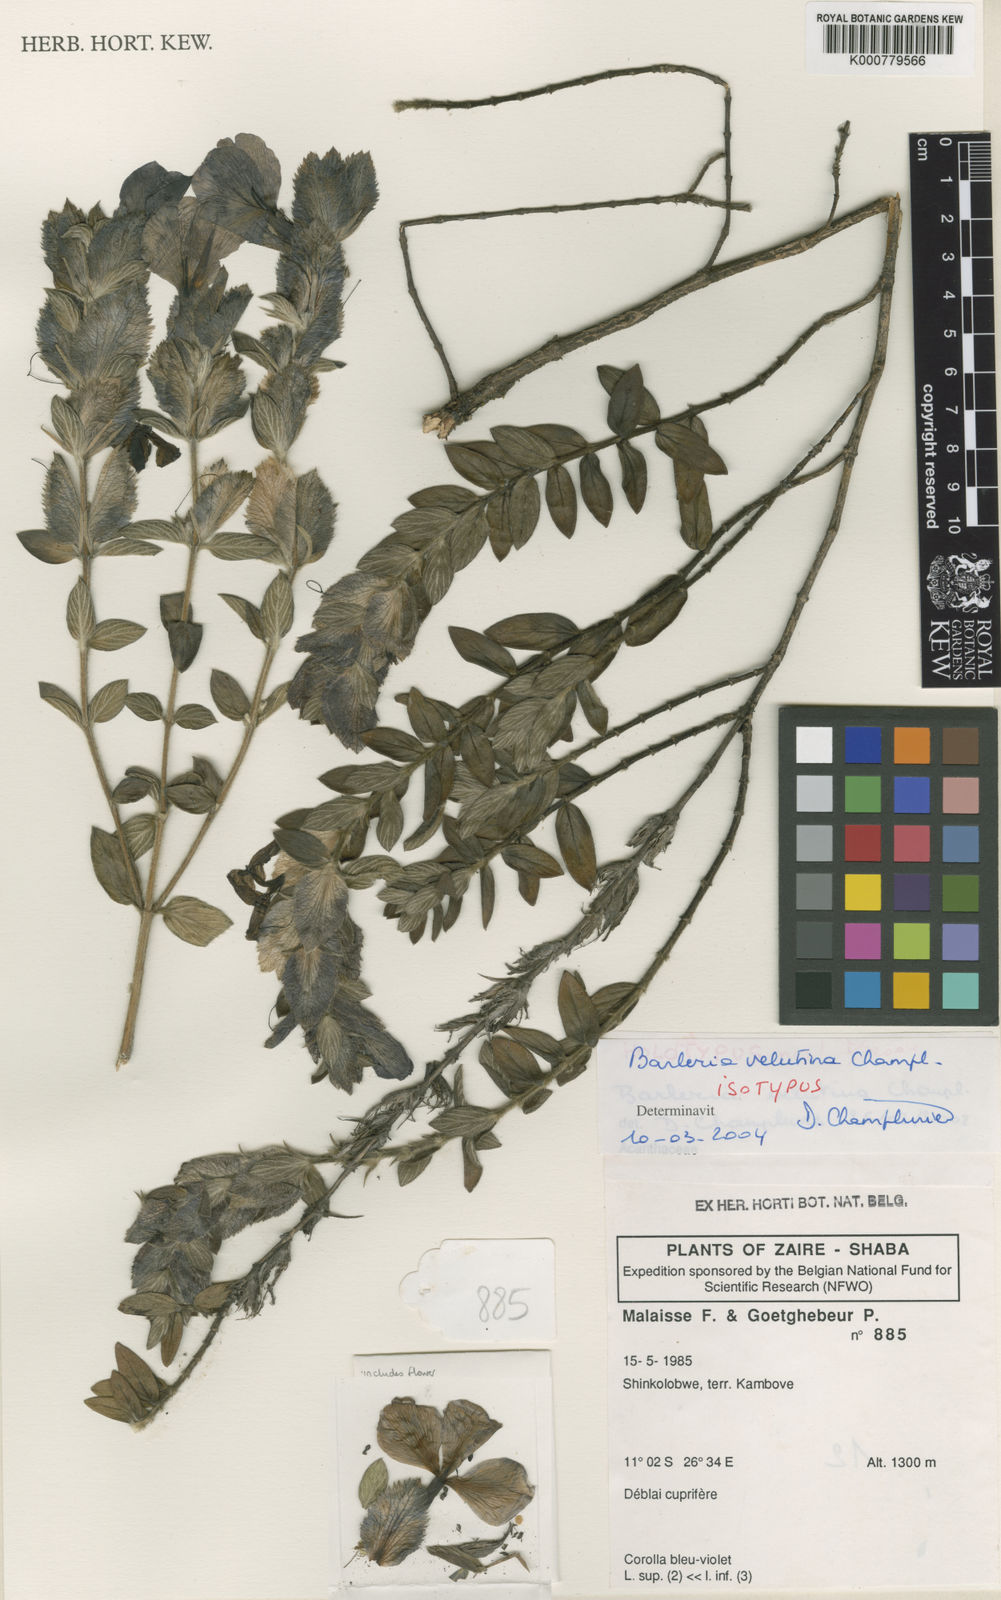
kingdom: Plantae
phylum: Tracheophyta
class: Magnoliopsida
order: Lamiales
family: Acanthaceae
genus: Barleria
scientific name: Barleria velutina
